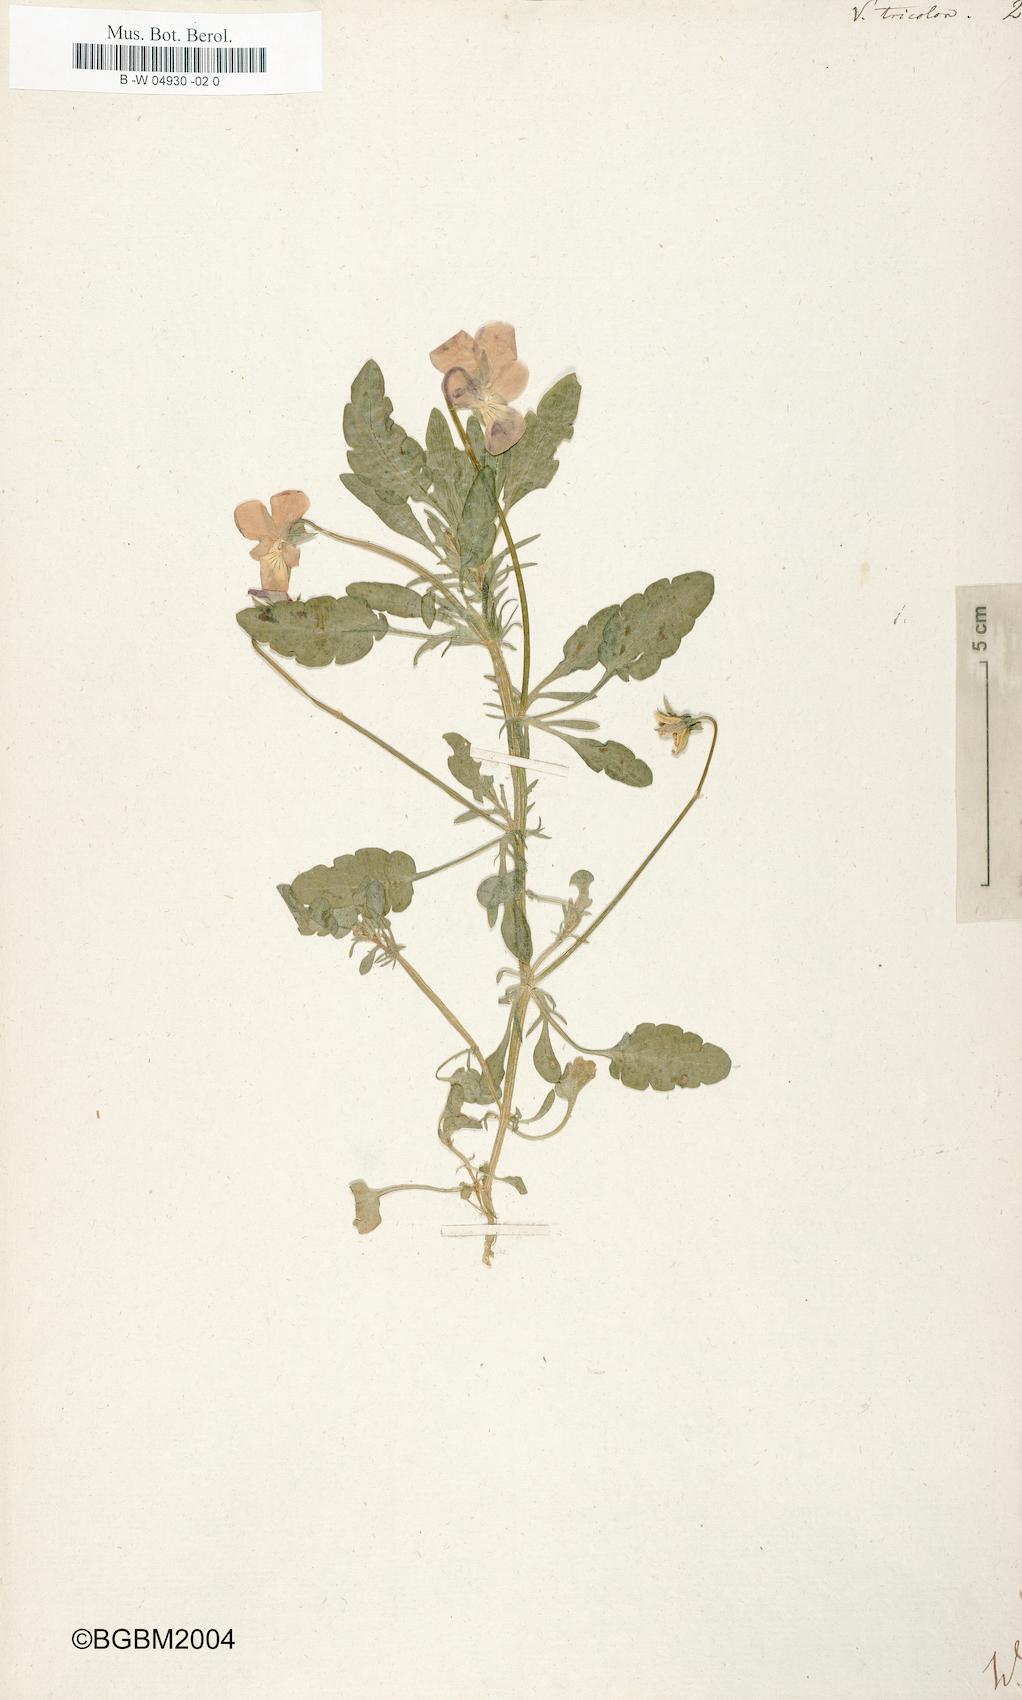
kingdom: Plantae
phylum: Tracheophyta
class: Magnoliopsida
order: Malpighiales
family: Violaceae
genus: Viola
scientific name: Viola tricolor
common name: Pansy
